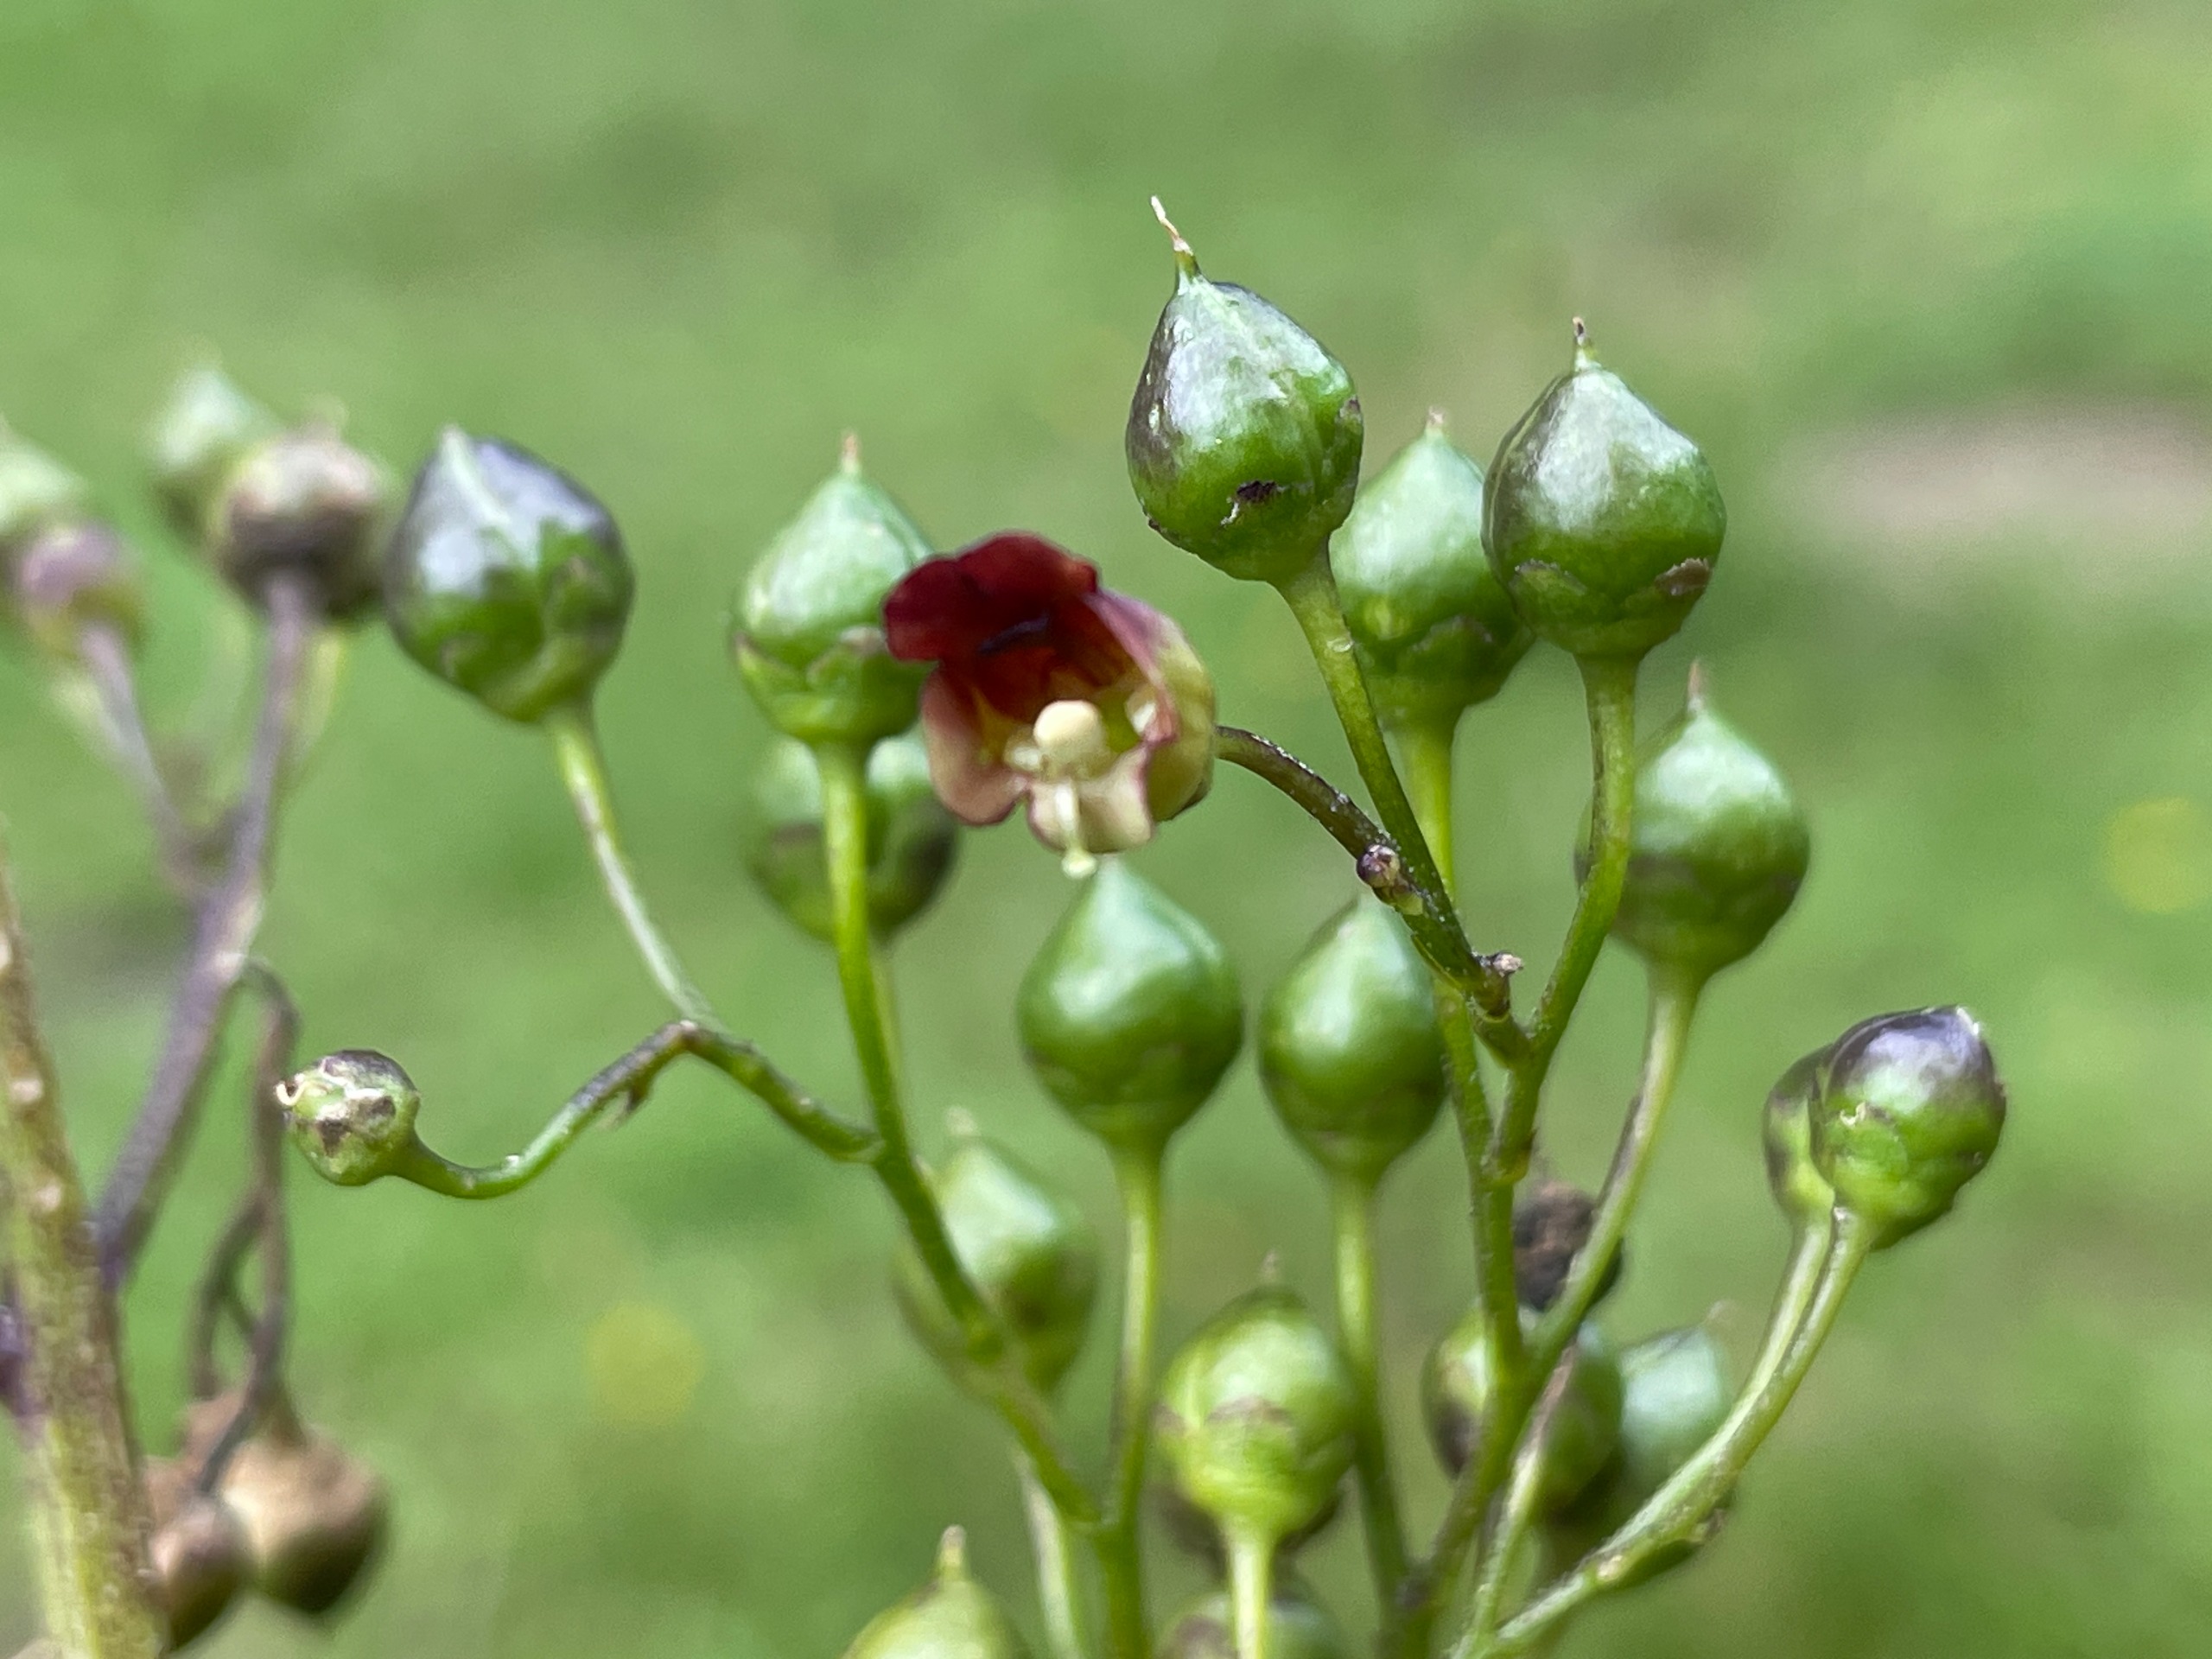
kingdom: Plantae
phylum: Tracheophyta
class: Magnoliopsida
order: Lamiales
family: Scrophulariaceae
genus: Scrophularia
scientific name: Scrophularia nodosa
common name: Knoldet brunrod
